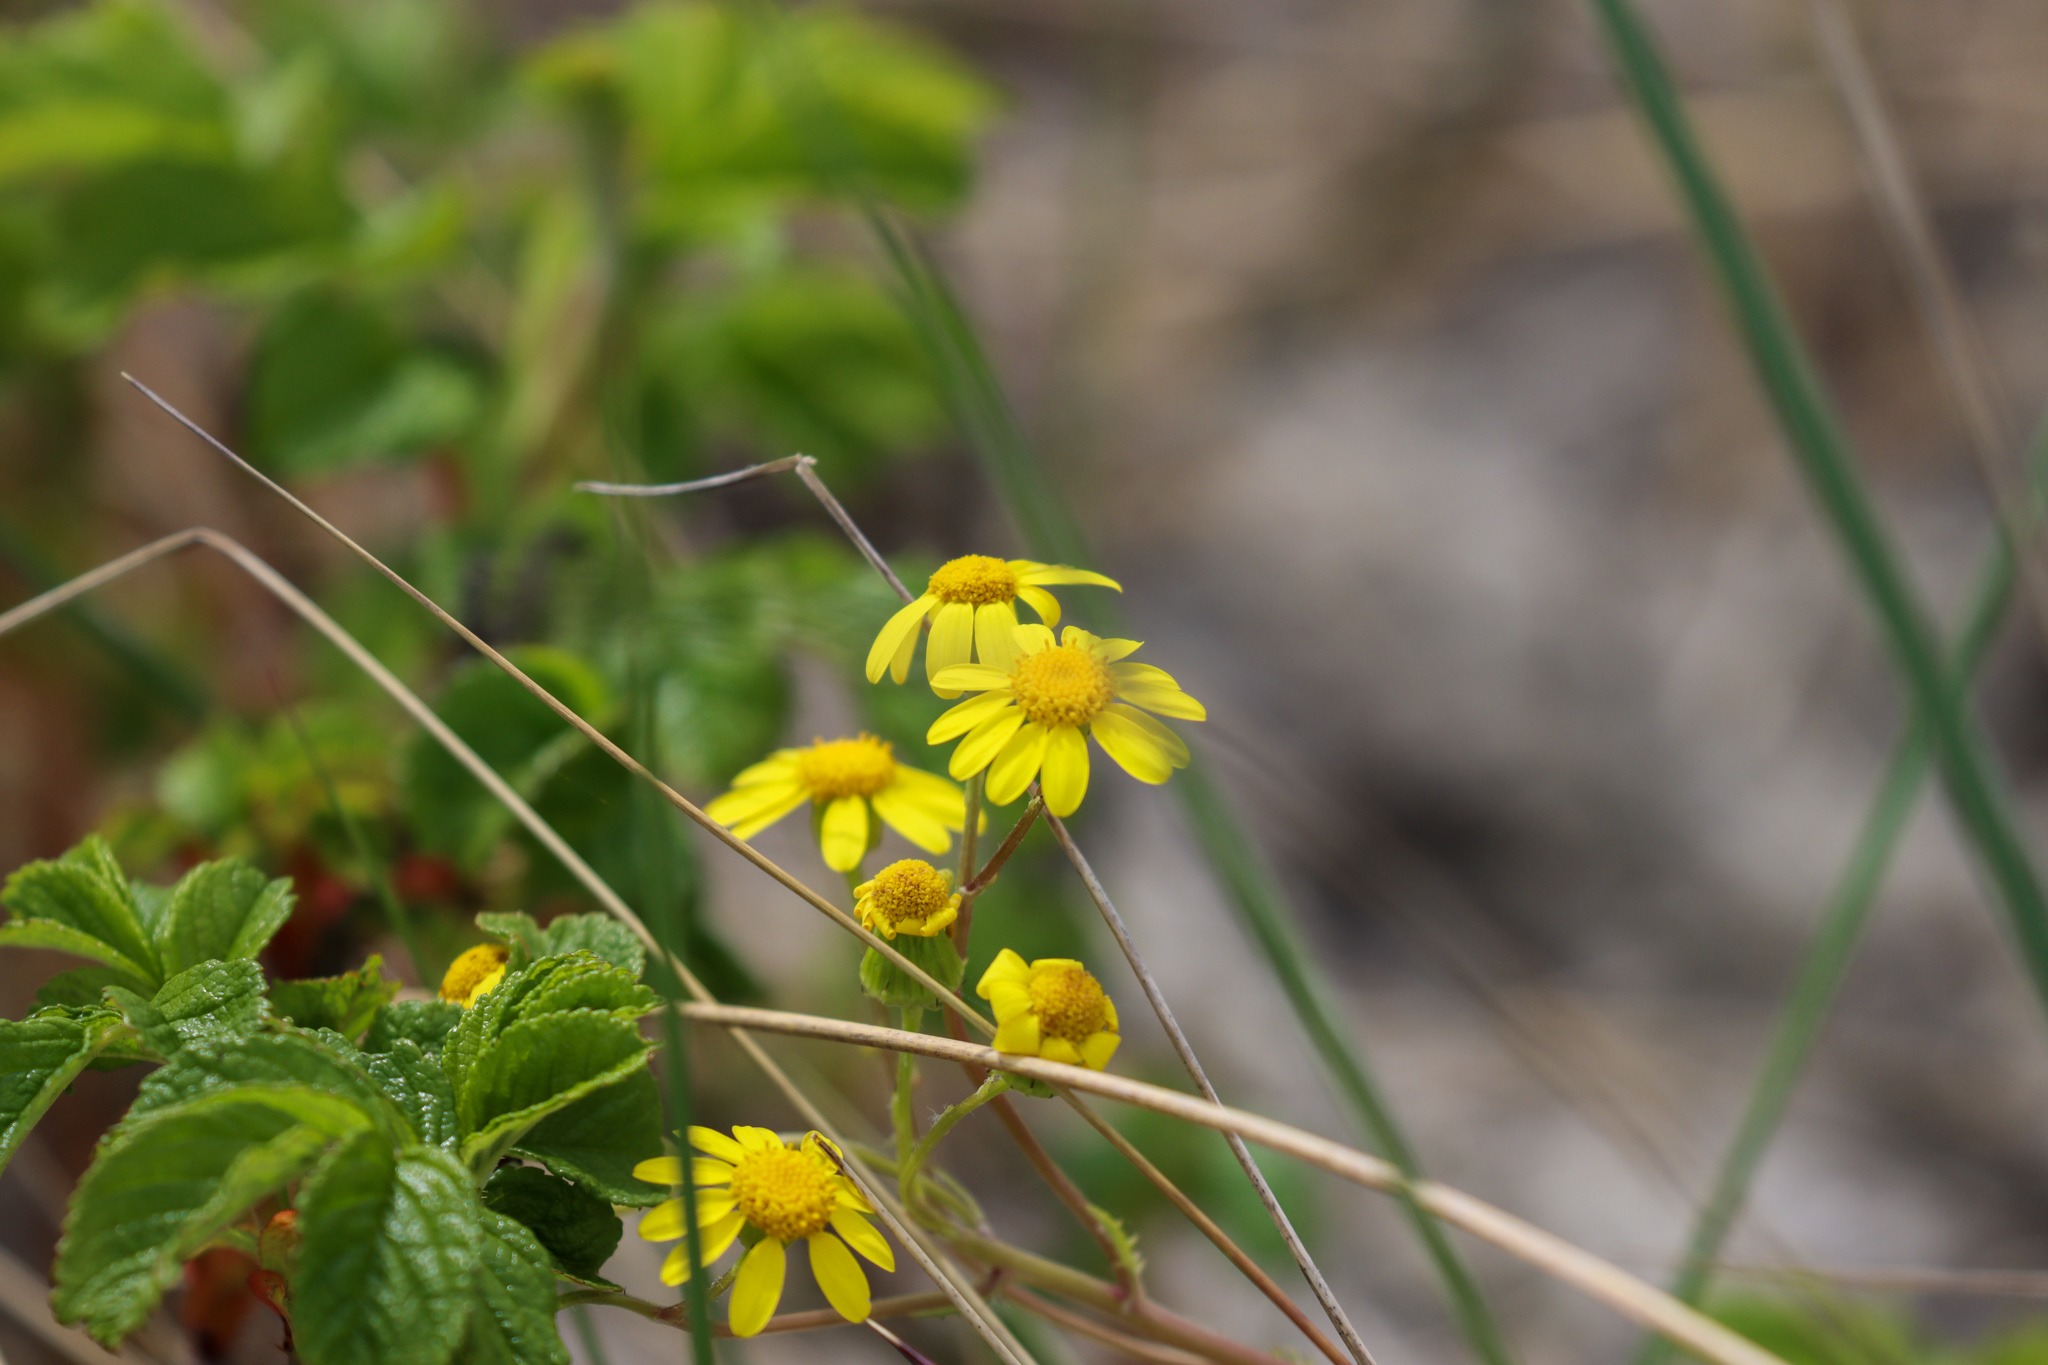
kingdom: Plantae
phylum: Tracheophyta
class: Magnoliopsida
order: Asterales
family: Asteraceae
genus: Senecio
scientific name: Senecio leucanthemifolius
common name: Vår-brandbæger
